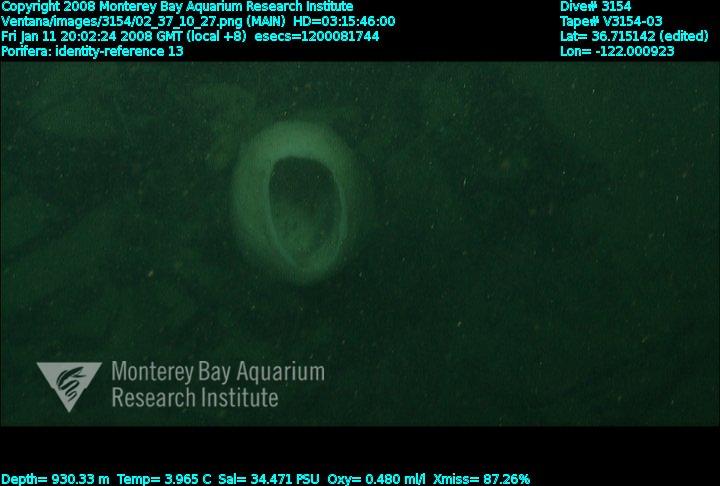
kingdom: Animalia
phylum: Porifera
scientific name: Porifera
